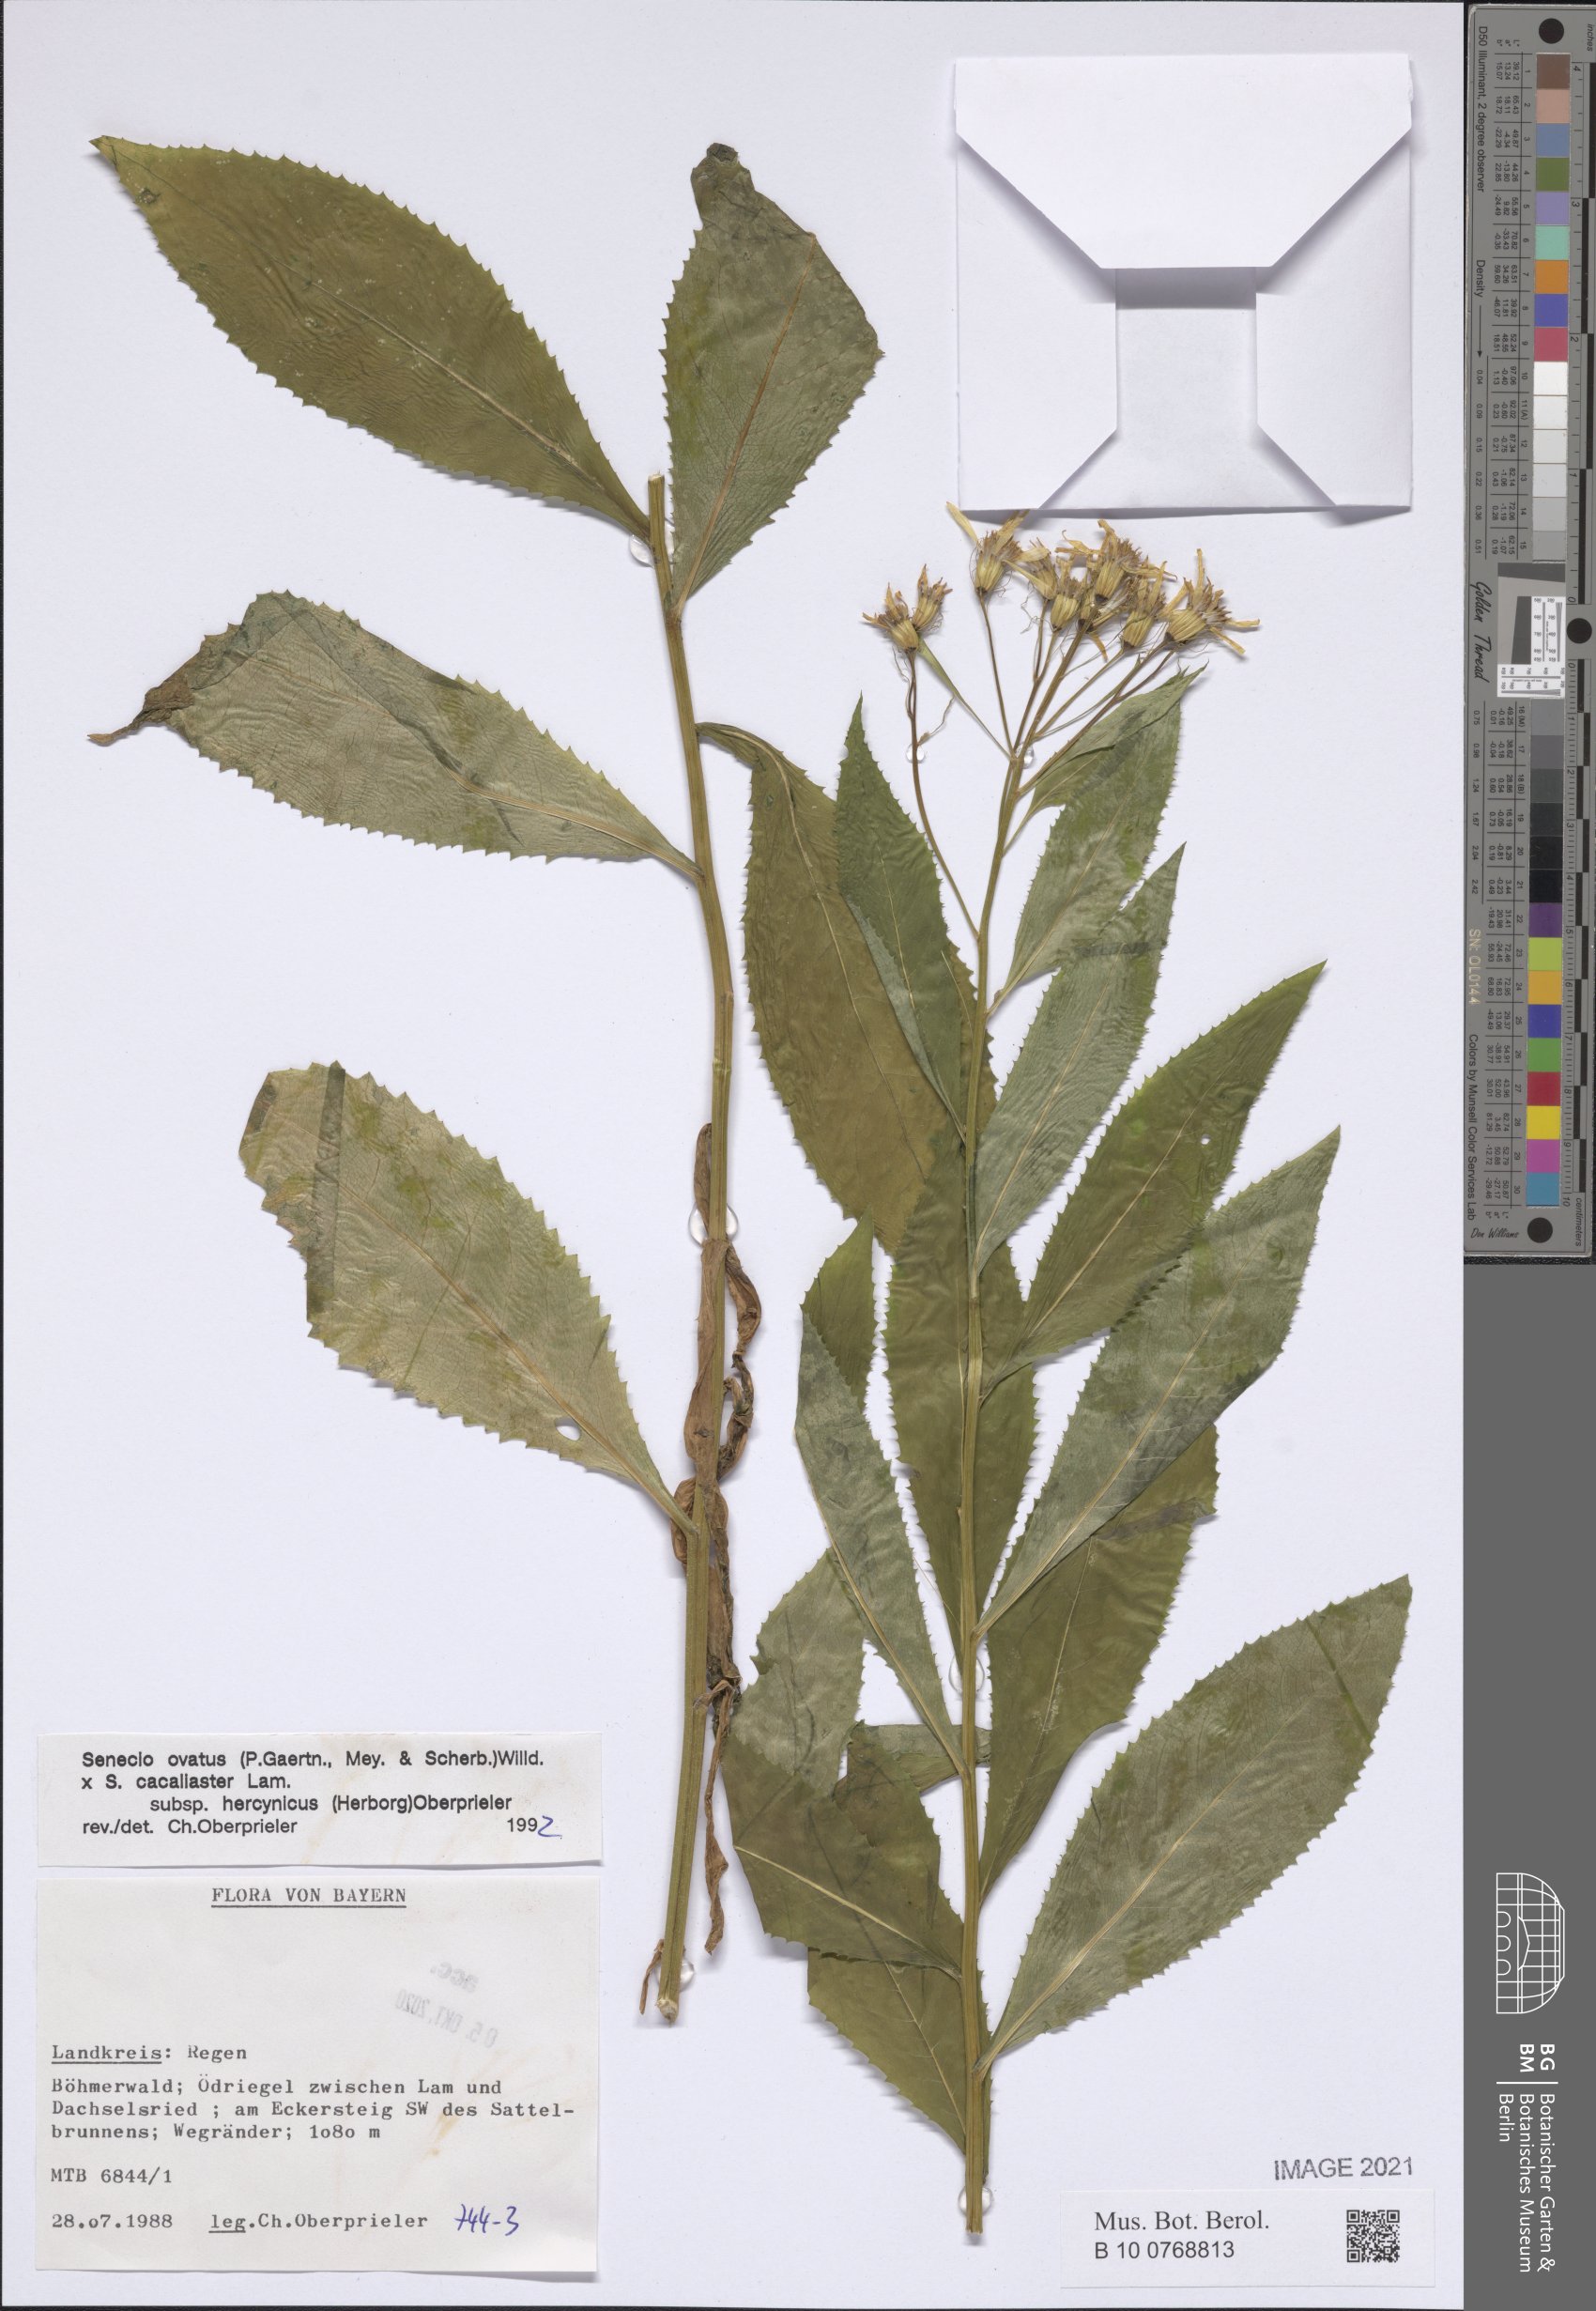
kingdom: Plantae
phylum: Tracheophyta
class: Magnoliopsida
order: Asterales
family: Asteraceae
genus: Senecio
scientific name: Senecio ovatus
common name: Wood ragwort
